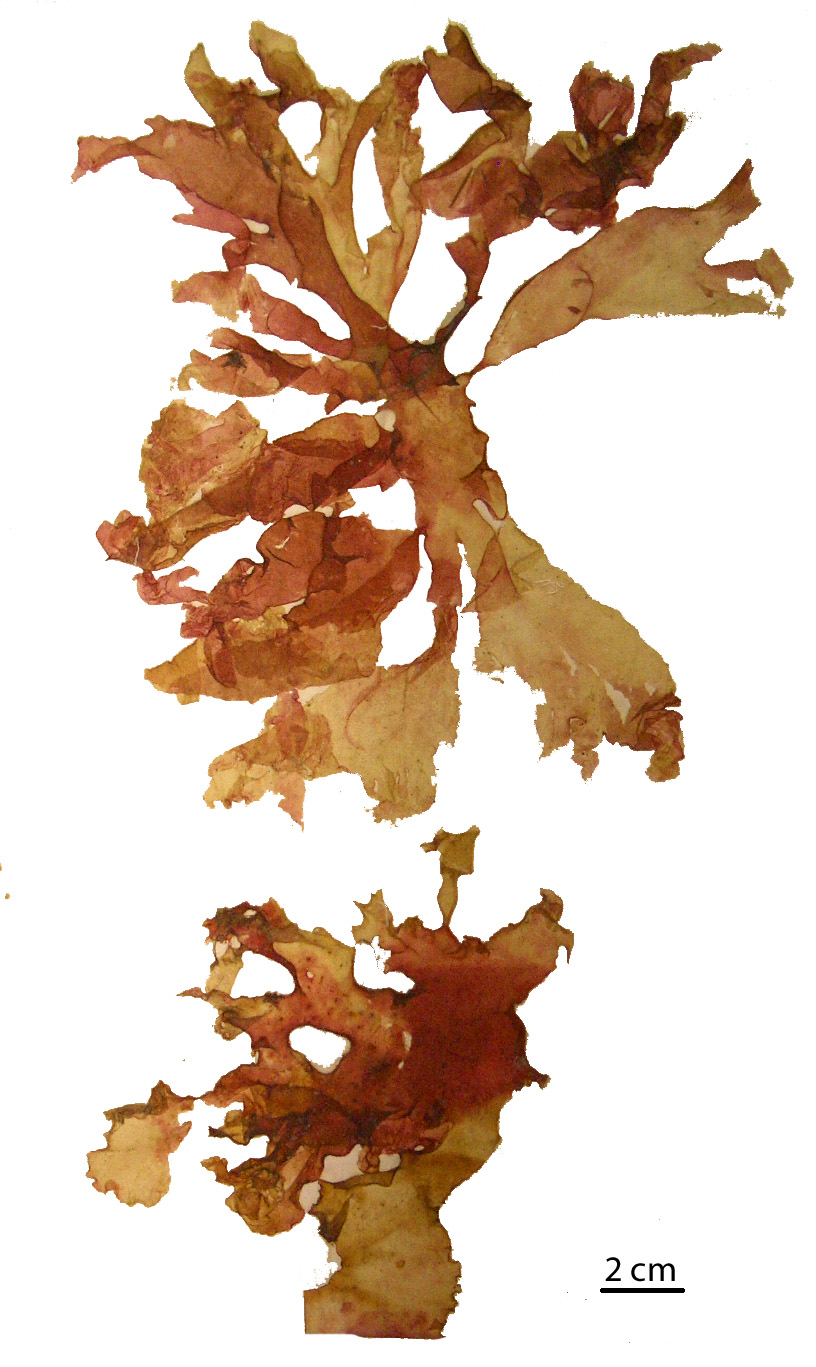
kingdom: Plantae
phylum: Rhodophyta
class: Florideophyceae
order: Gigartinales
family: Kallymeniaceae
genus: Psaromenia
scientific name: Psaromenia berggrenii
